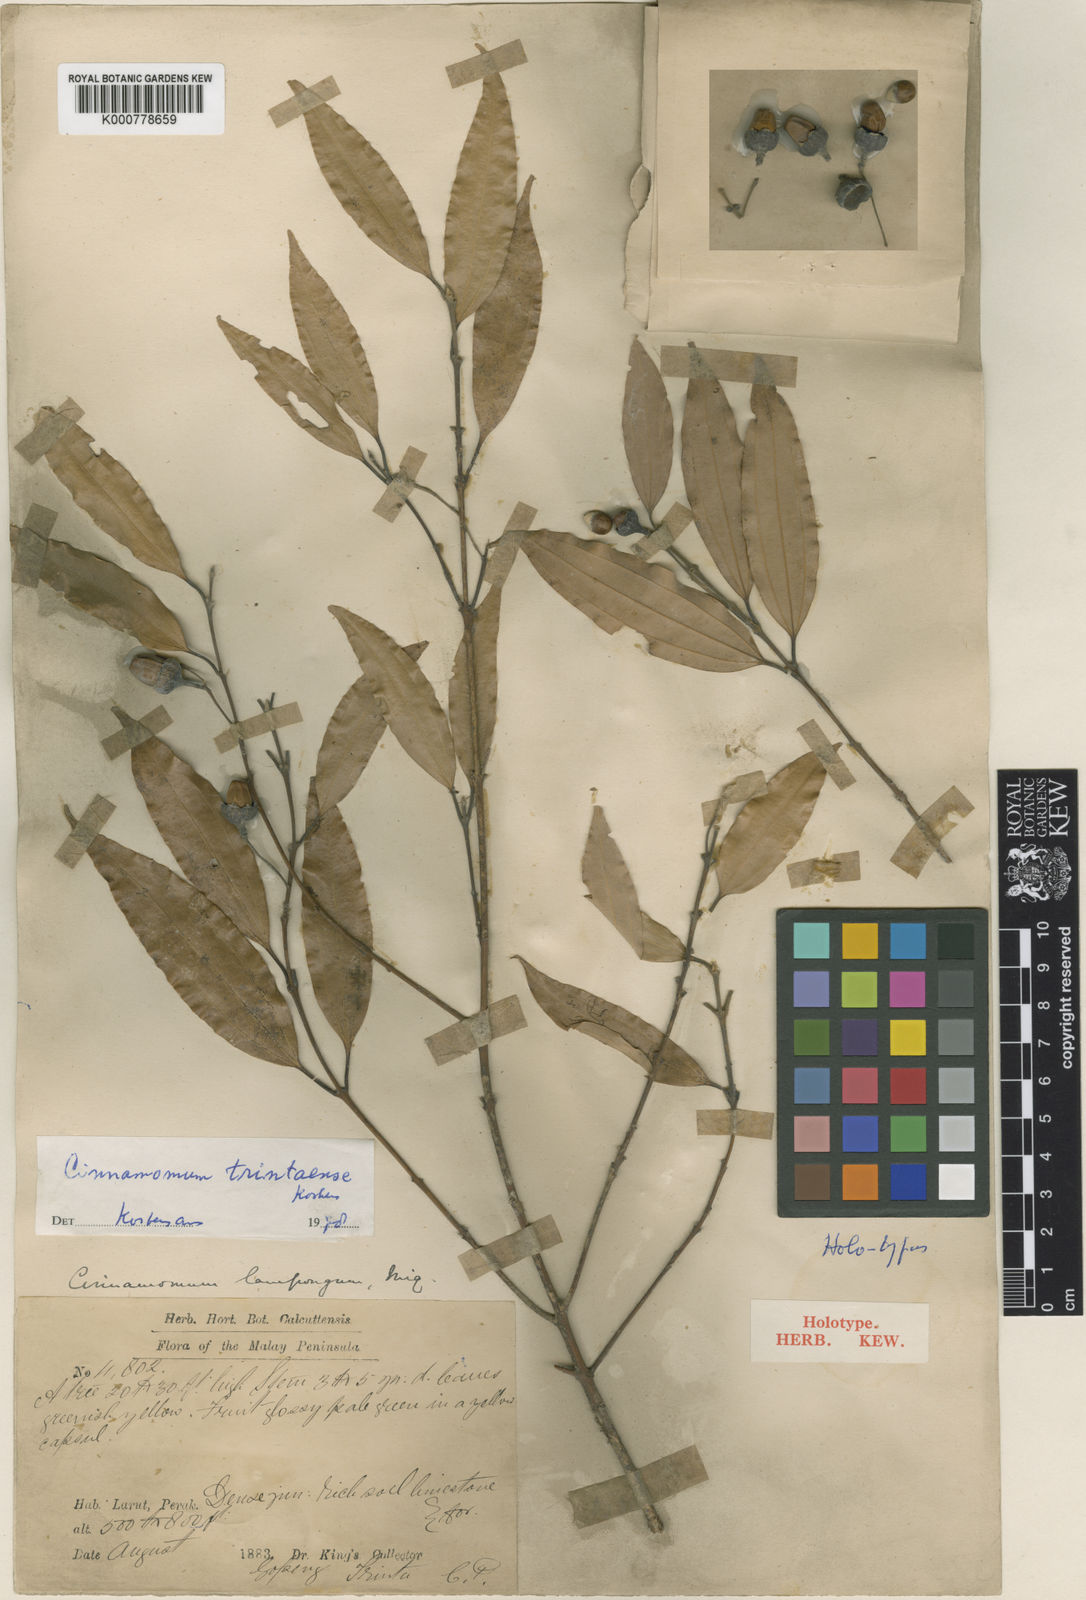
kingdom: Plantae
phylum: Tracheophyta
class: Magnoliopsida
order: Laurales
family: Lauraceae
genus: Cinnamomum
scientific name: Cinnamomum trintaense
